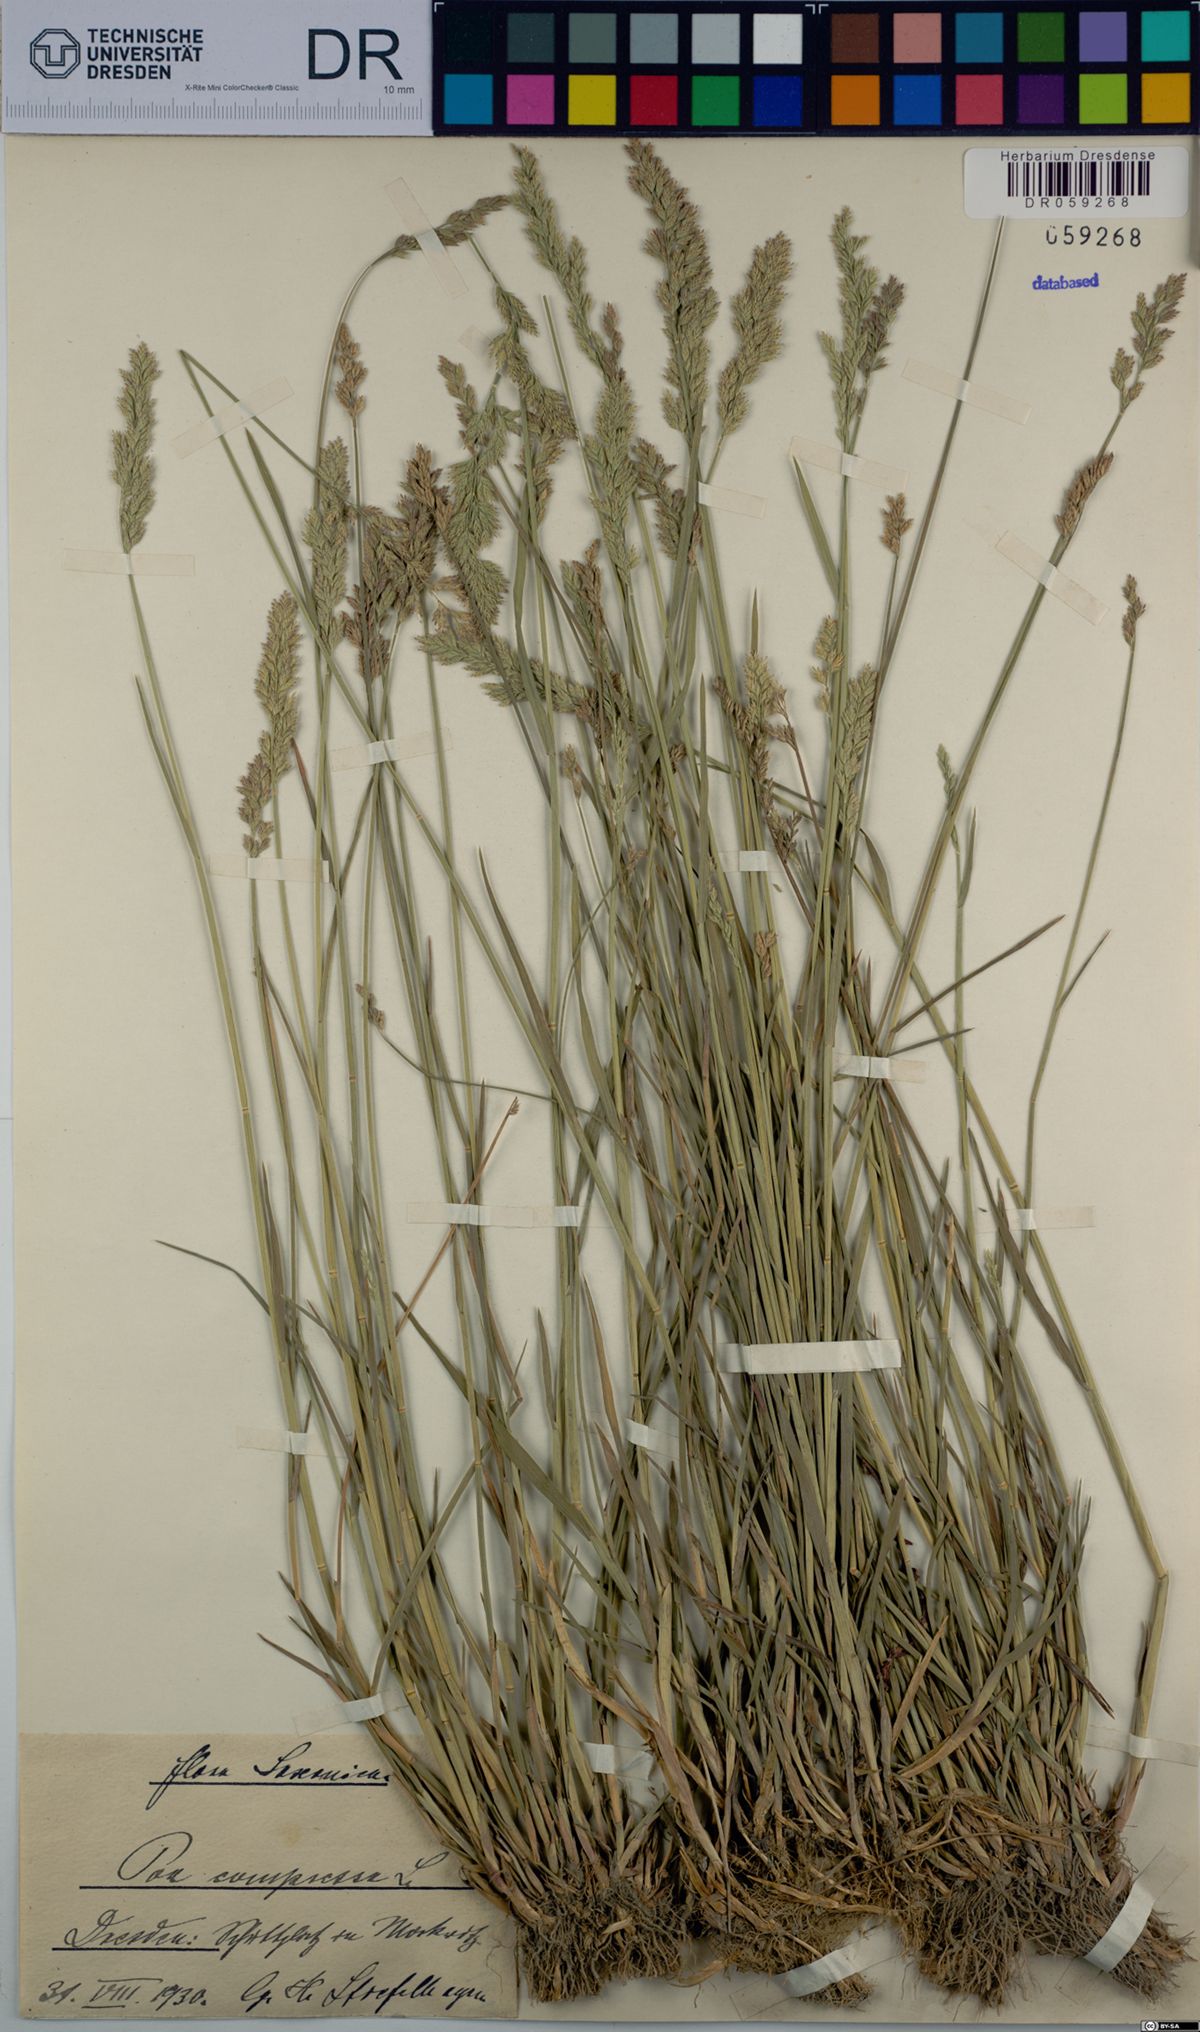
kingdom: Plantae
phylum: Tracheophyta
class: Liliopsida
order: Poales
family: Poaceae
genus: Poa
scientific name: Poa compressa
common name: Canada bluegrass
